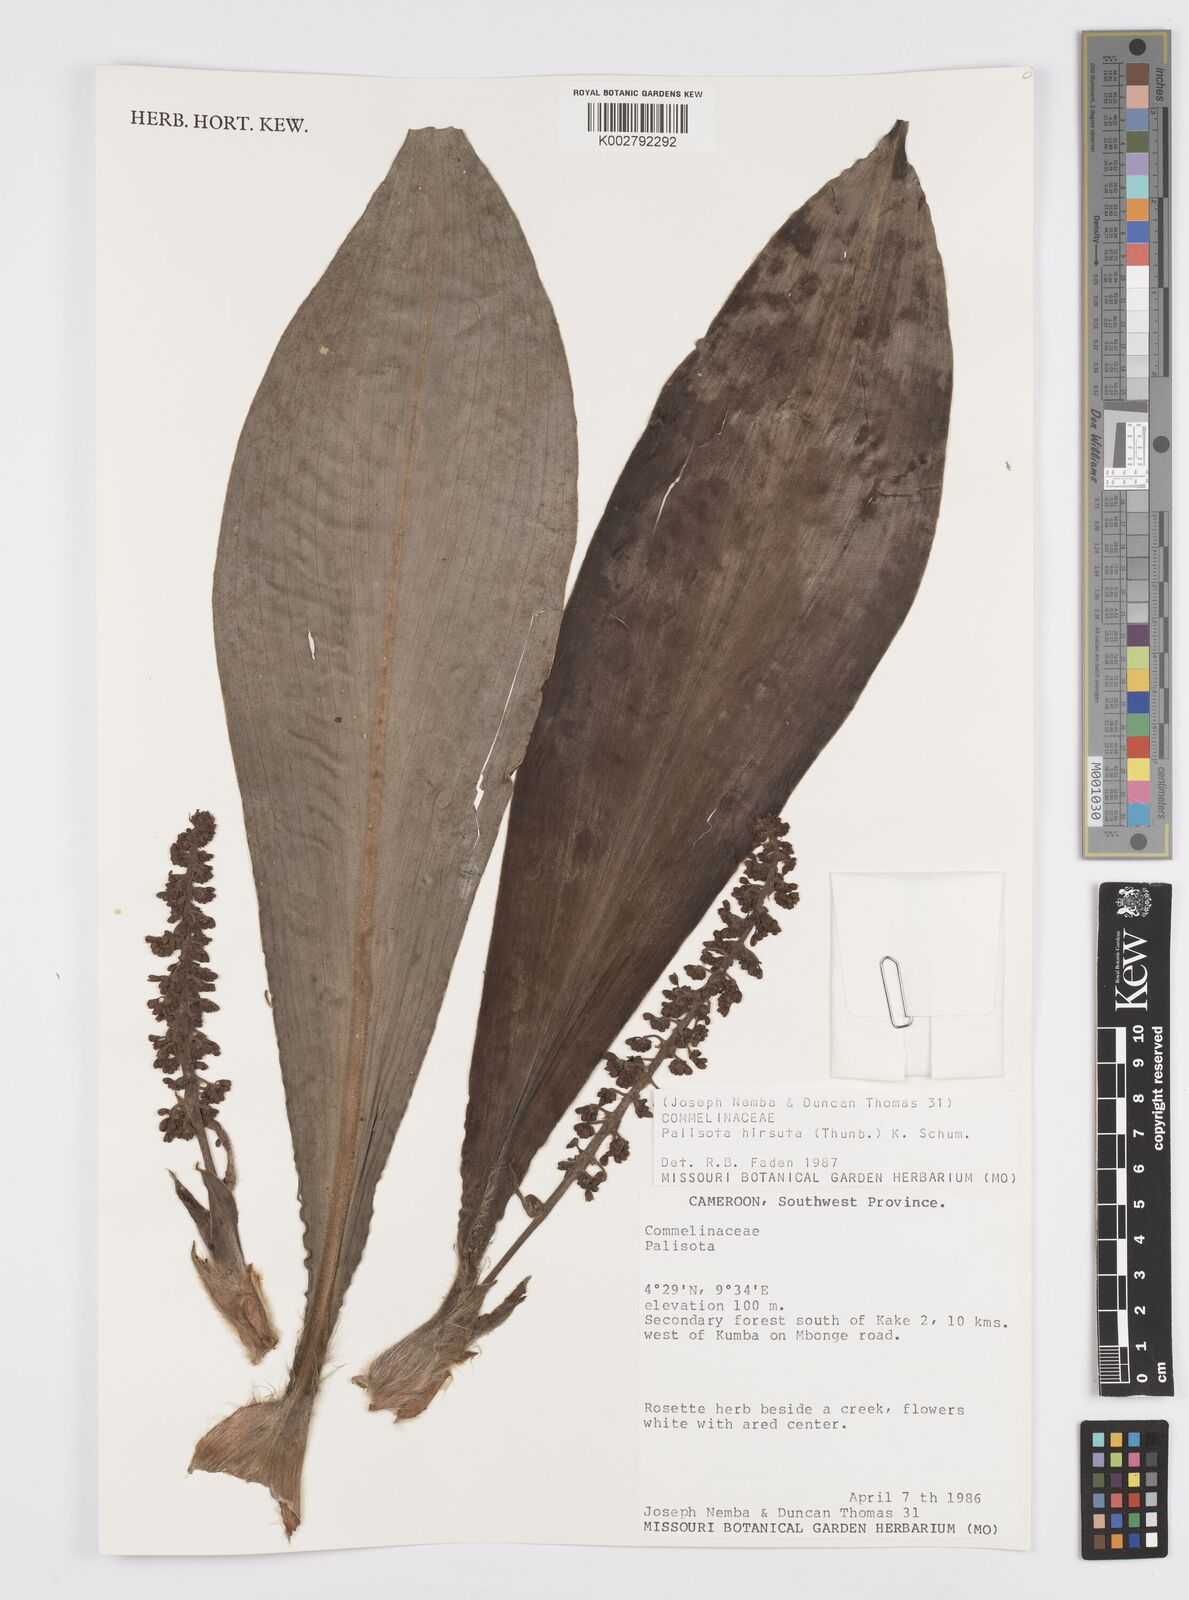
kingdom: Plantae
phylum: Tracheophyta
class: Liliopsida
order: Commelinales
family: Commelinaceae
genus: Palisota
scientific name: Palisota hirsuta
